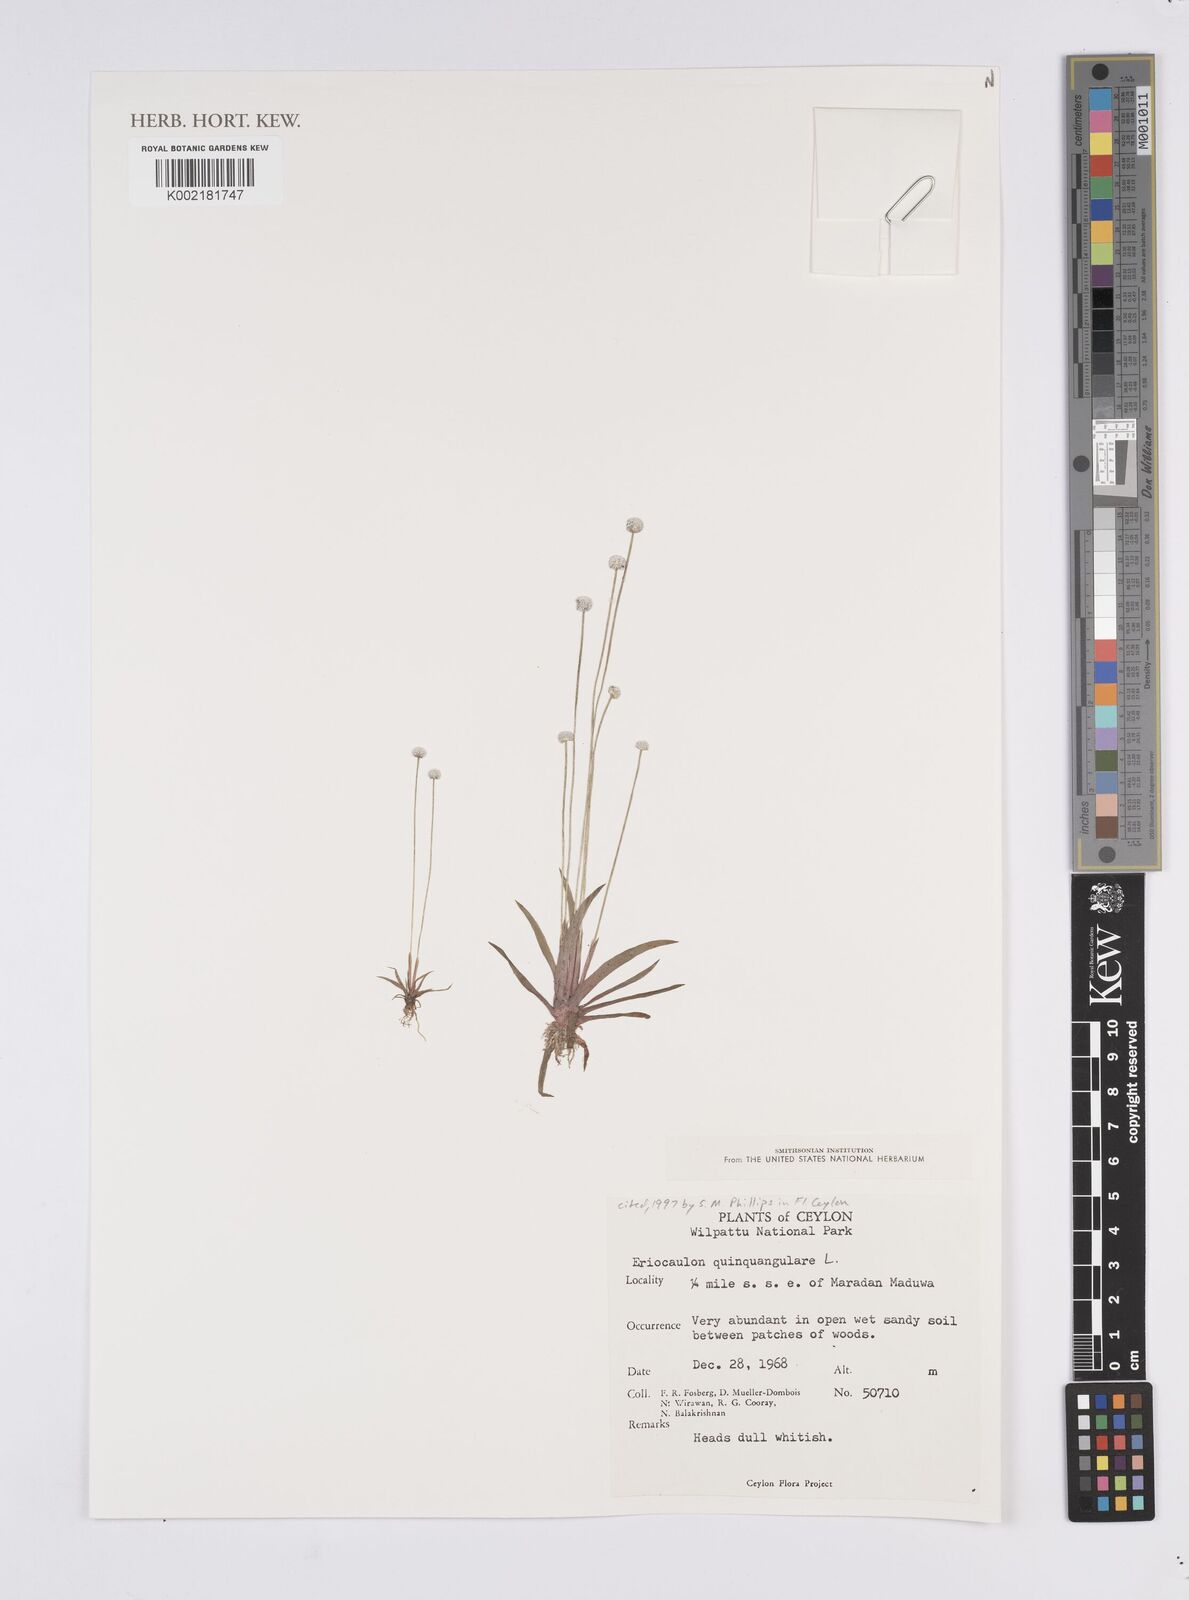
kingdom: Plantae
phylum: Tracheophyta
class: Liliopsida
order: Poales
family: Eriocaulaceae
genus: Eriocaulon
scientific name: Eriocaulon quinquangulare
